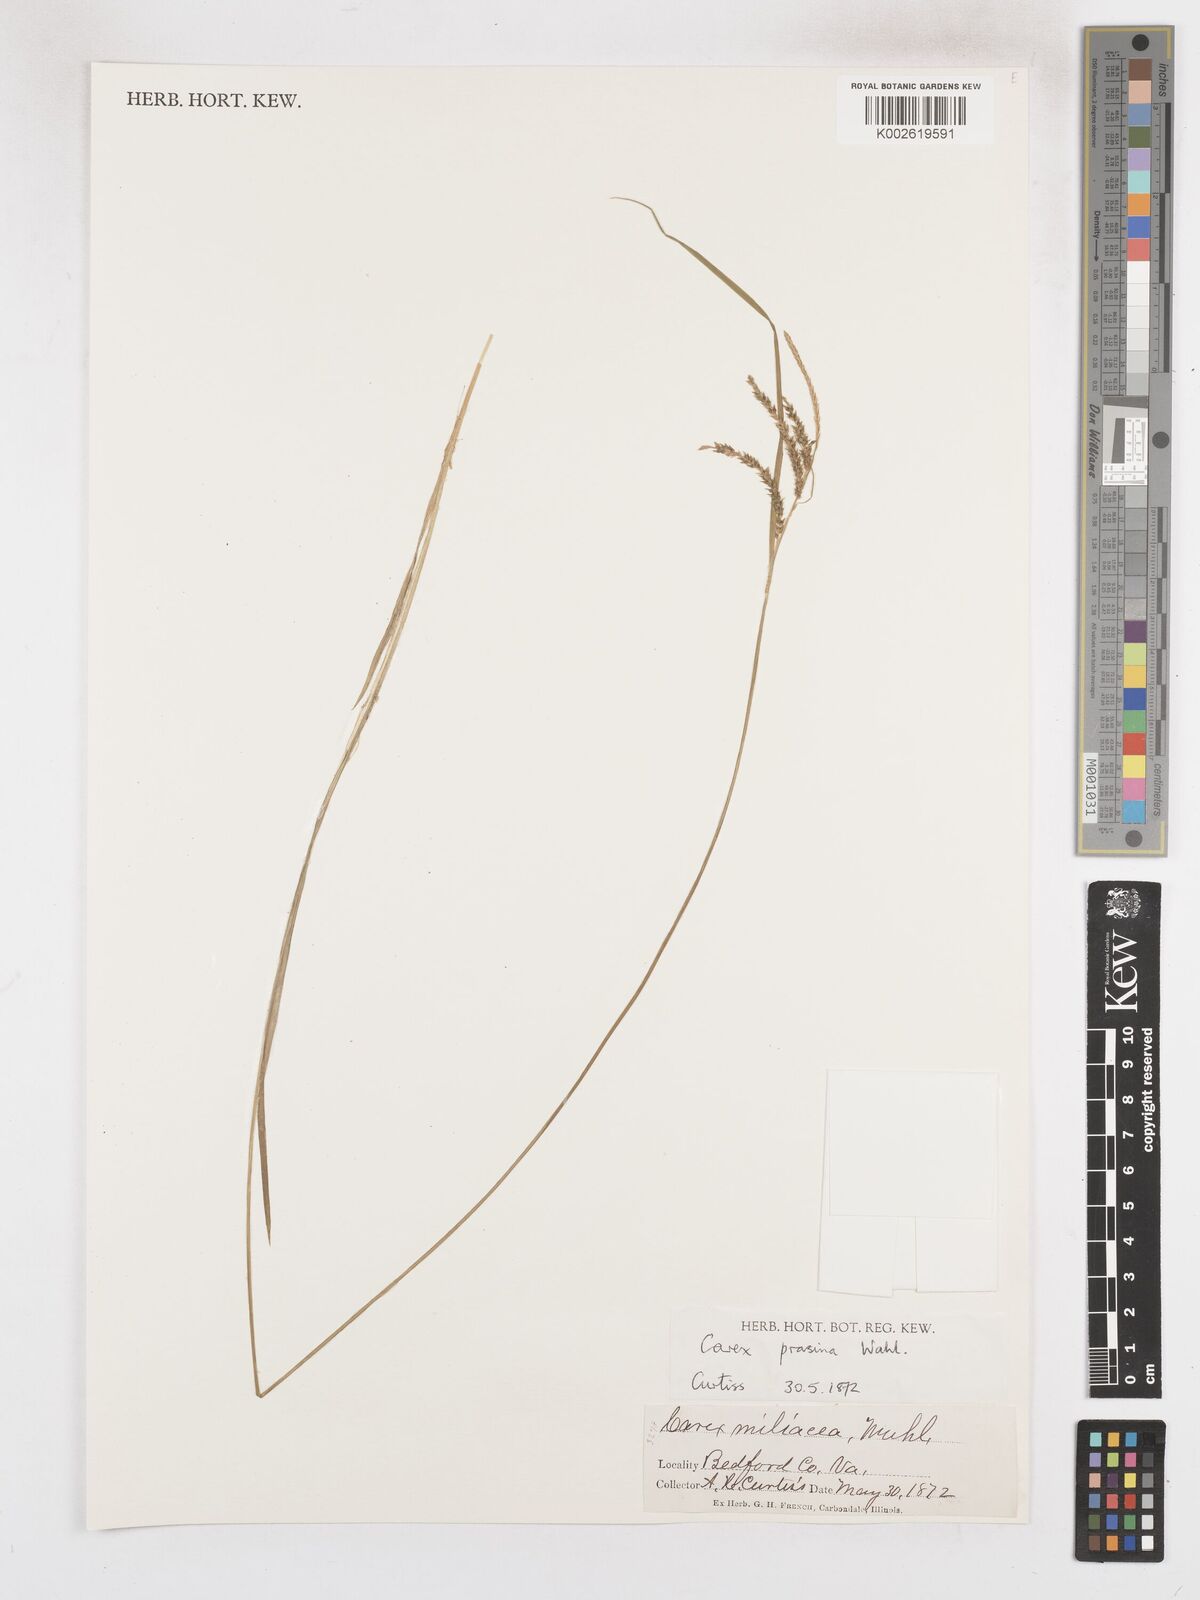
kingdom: Plantae
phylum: Tracheophyta
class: Liliopsida
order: Poales
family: Cyperaceae
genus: Carex
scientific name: Carex prasina
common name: Drooping sedge
